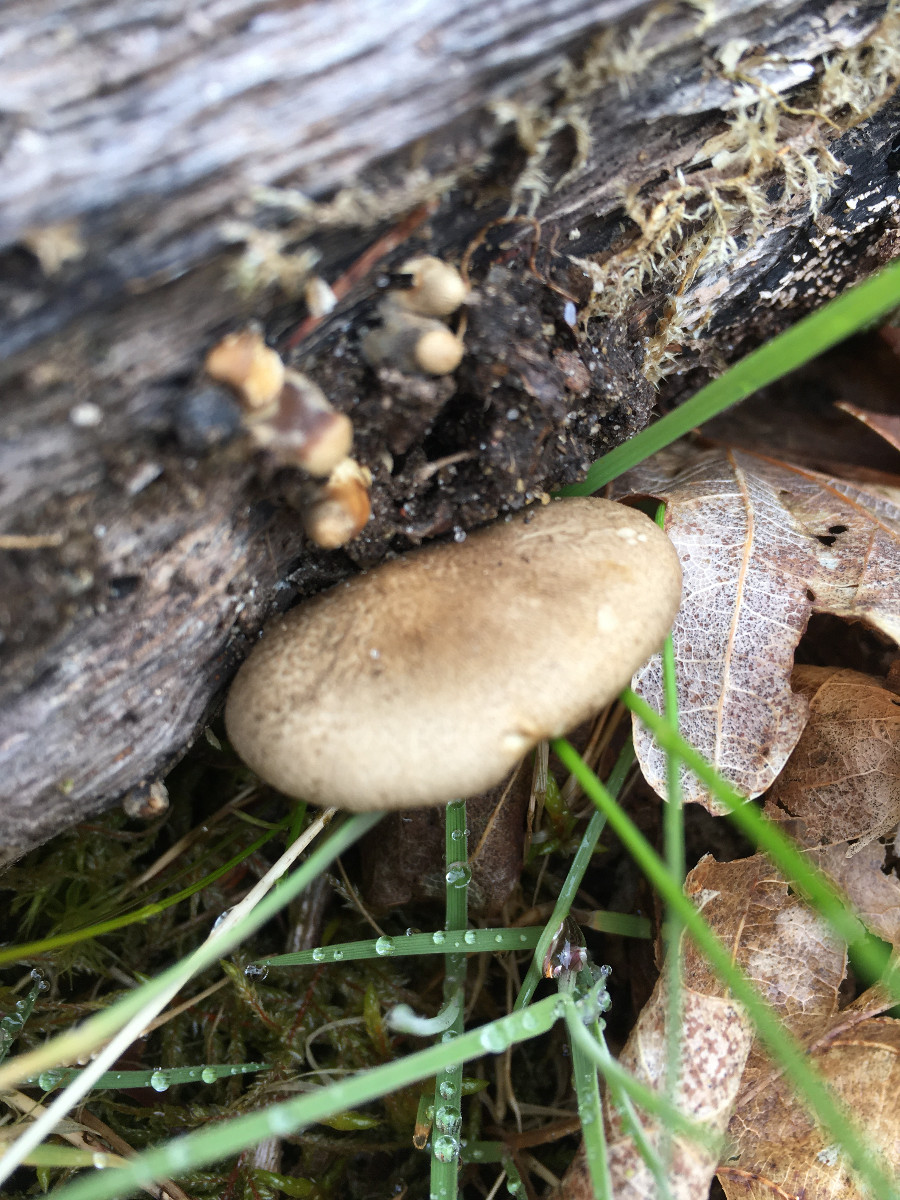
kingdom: Fungi
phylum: Basidiomycota
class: Agaricomycetes
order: Polyporales
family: Polyporaceae
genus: Lentinus
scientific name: Lentinus substrictus
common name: forårs-stilkporesvamp
